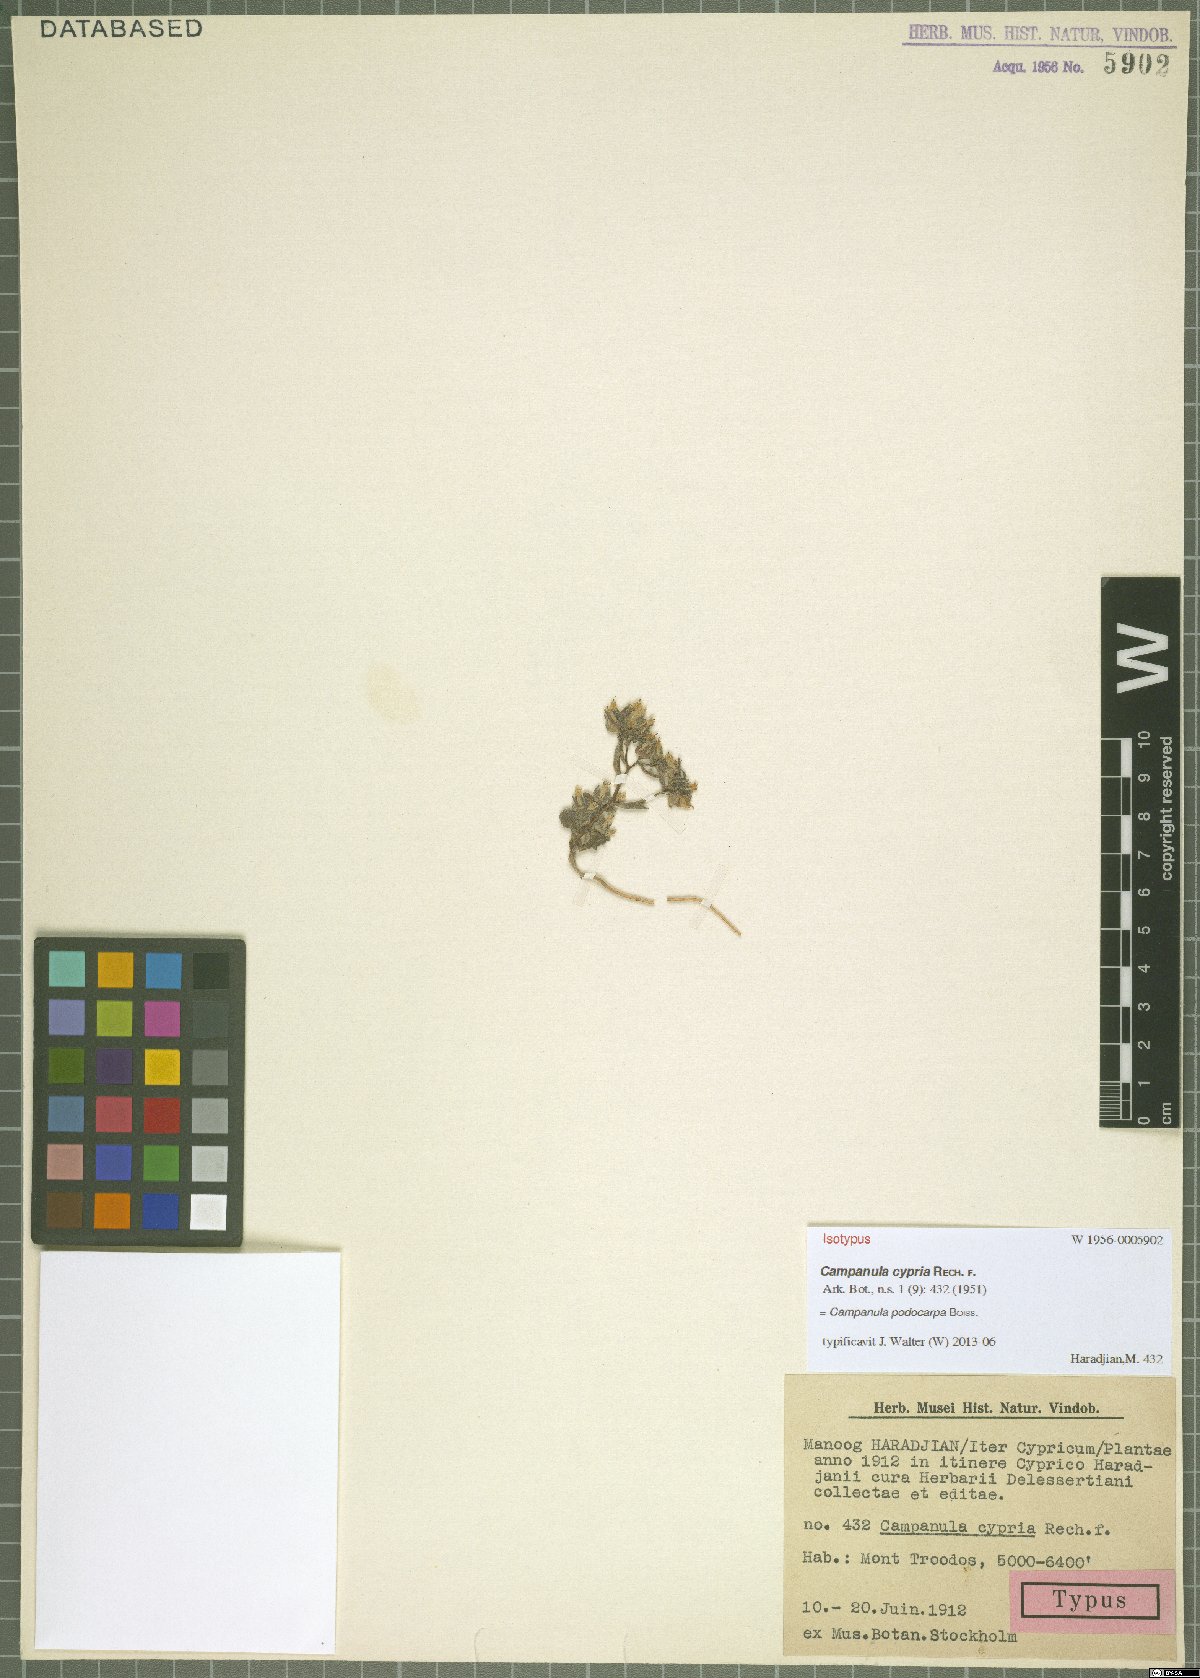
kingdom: Plantae
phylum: Tracheophyta
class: Magnoliopsida
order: Asterales
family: Campanulaceae
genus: Campanula
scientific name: Campanula podocarpa
